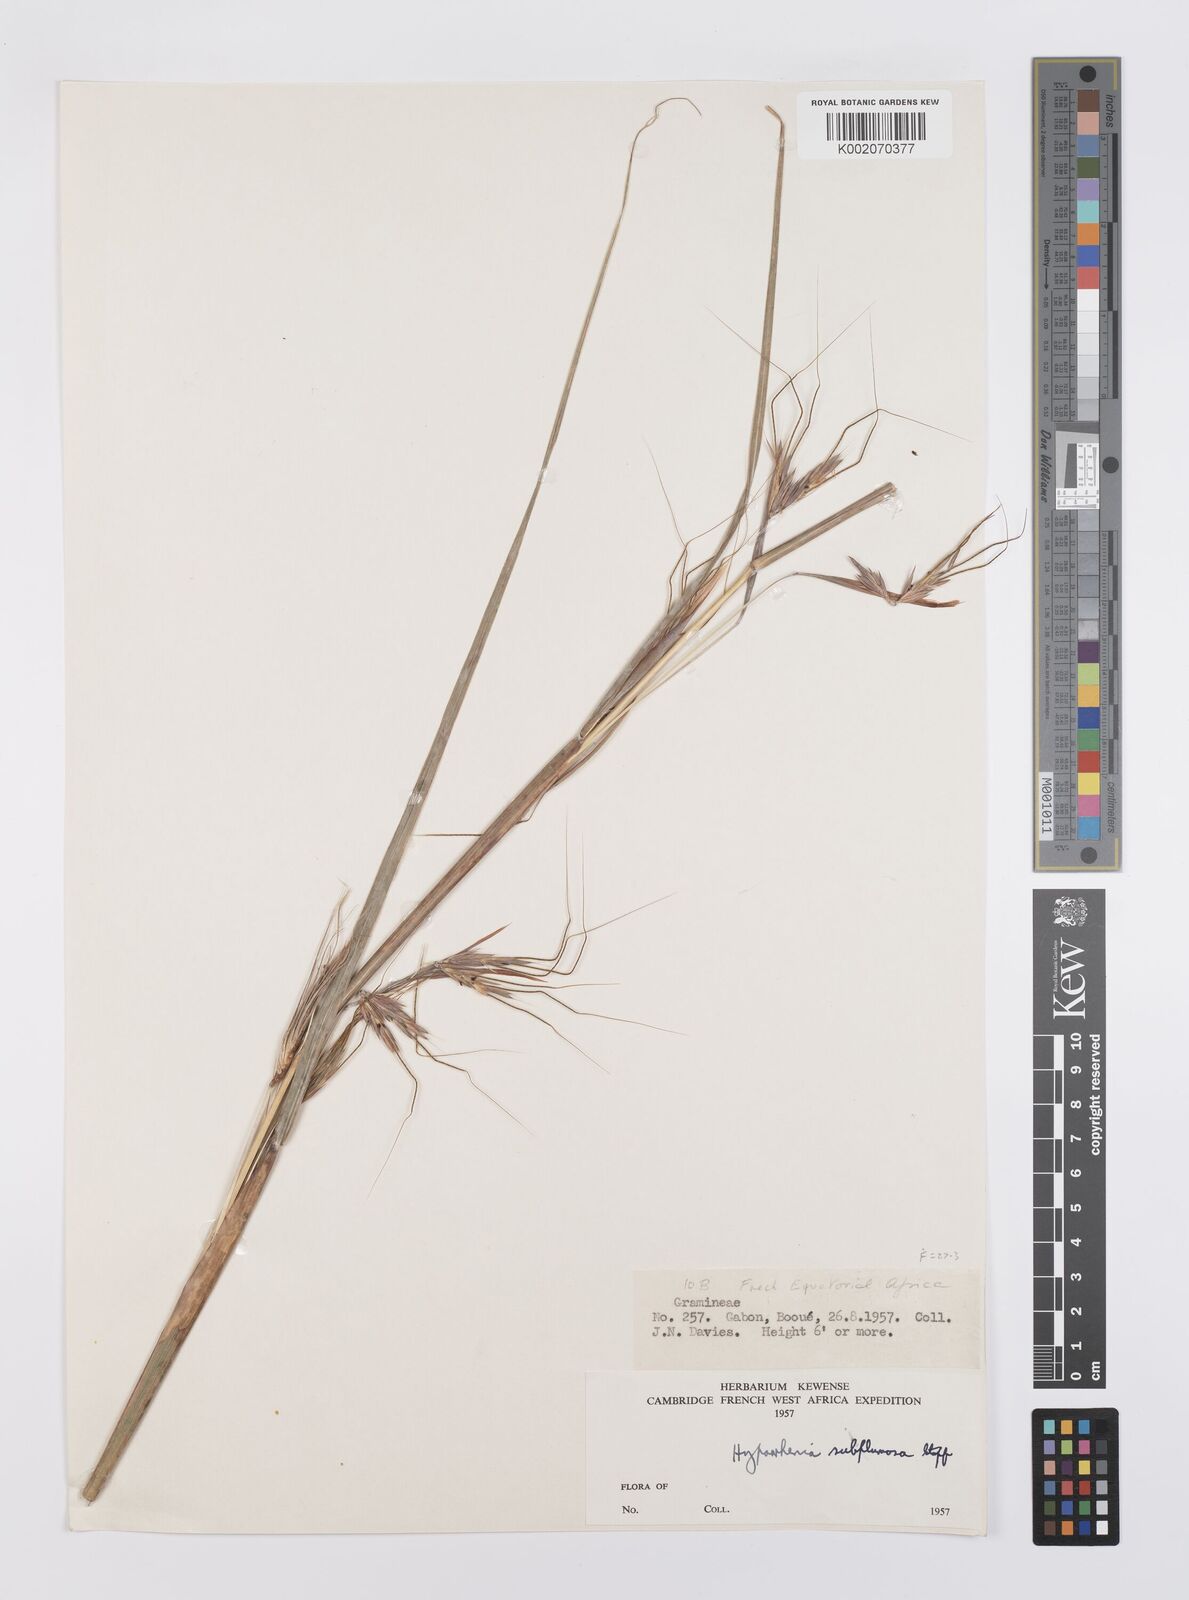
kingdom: Plantae
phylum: Tracheophyta
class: Liliopsida
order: Poales
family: Poaceae
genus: Hyparrhenia
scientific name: Hyparrhenia subplumosa
